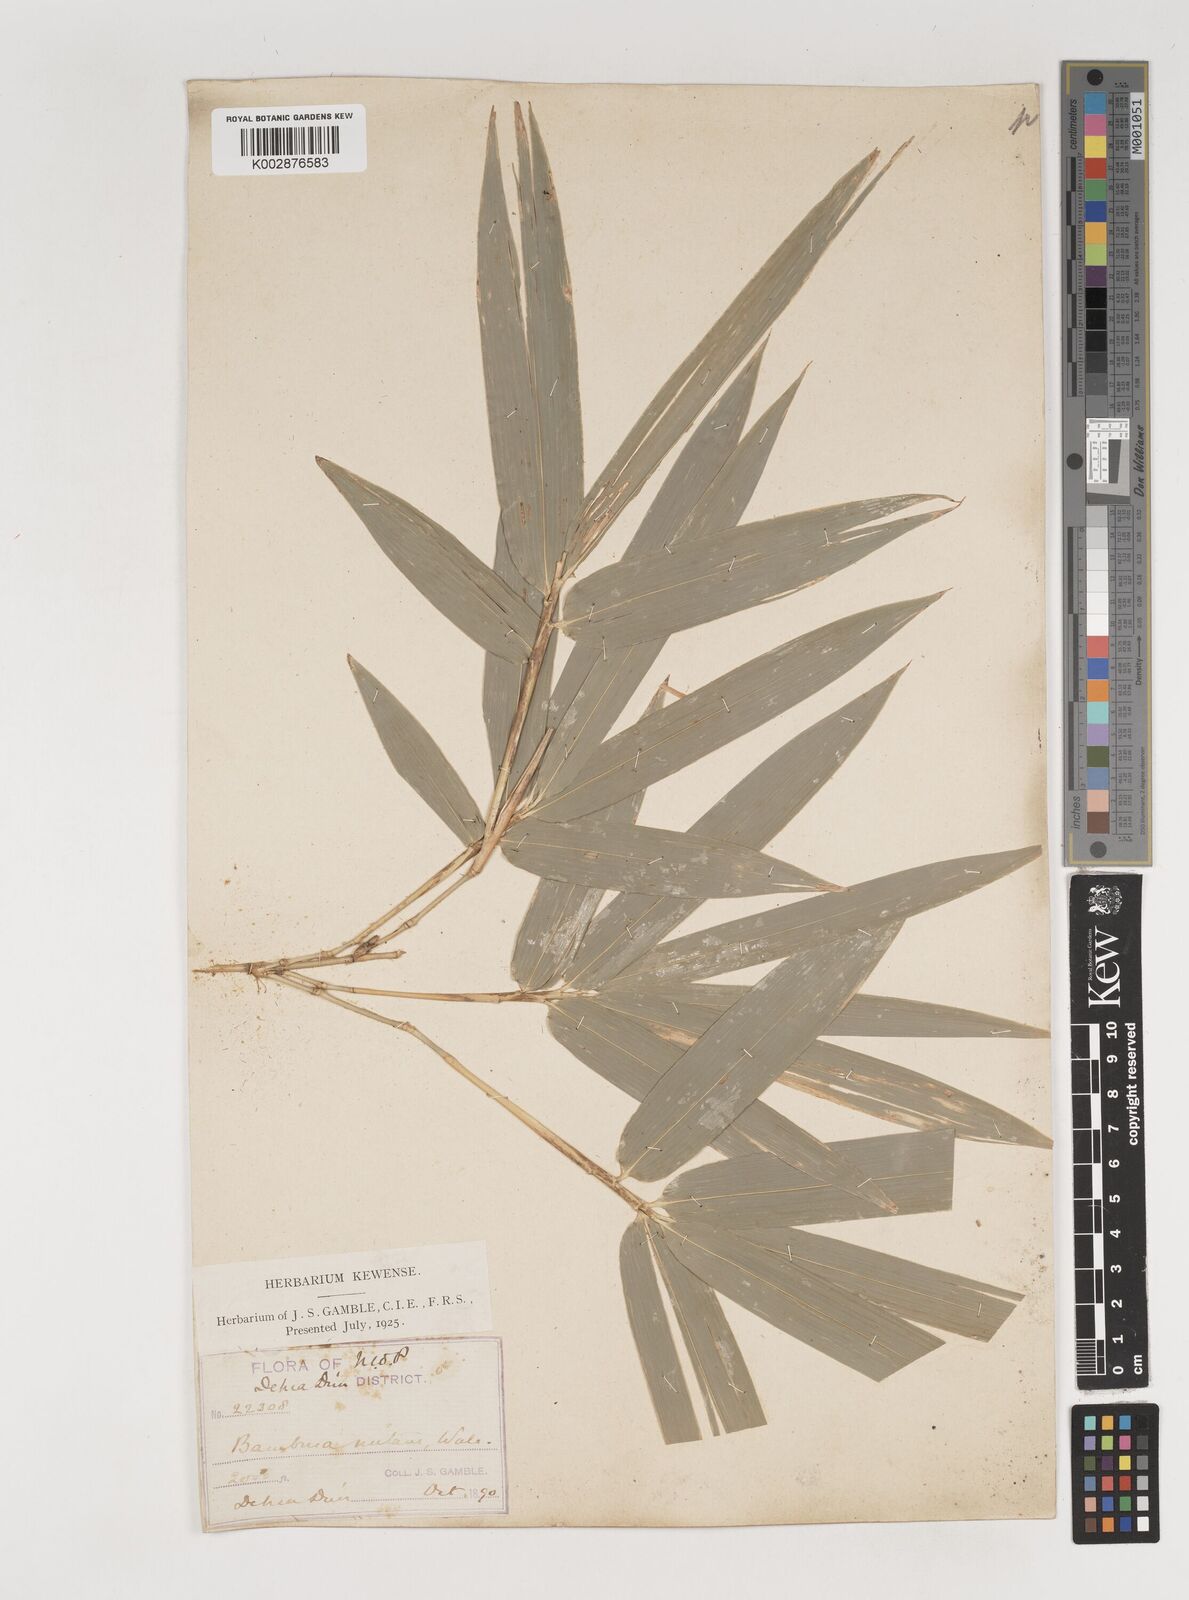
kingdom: Plantae
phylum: Tracheophyta
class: Liliopsida
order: Poales
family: Poaceae
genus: Bambusa
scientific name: Bambusa nutans
